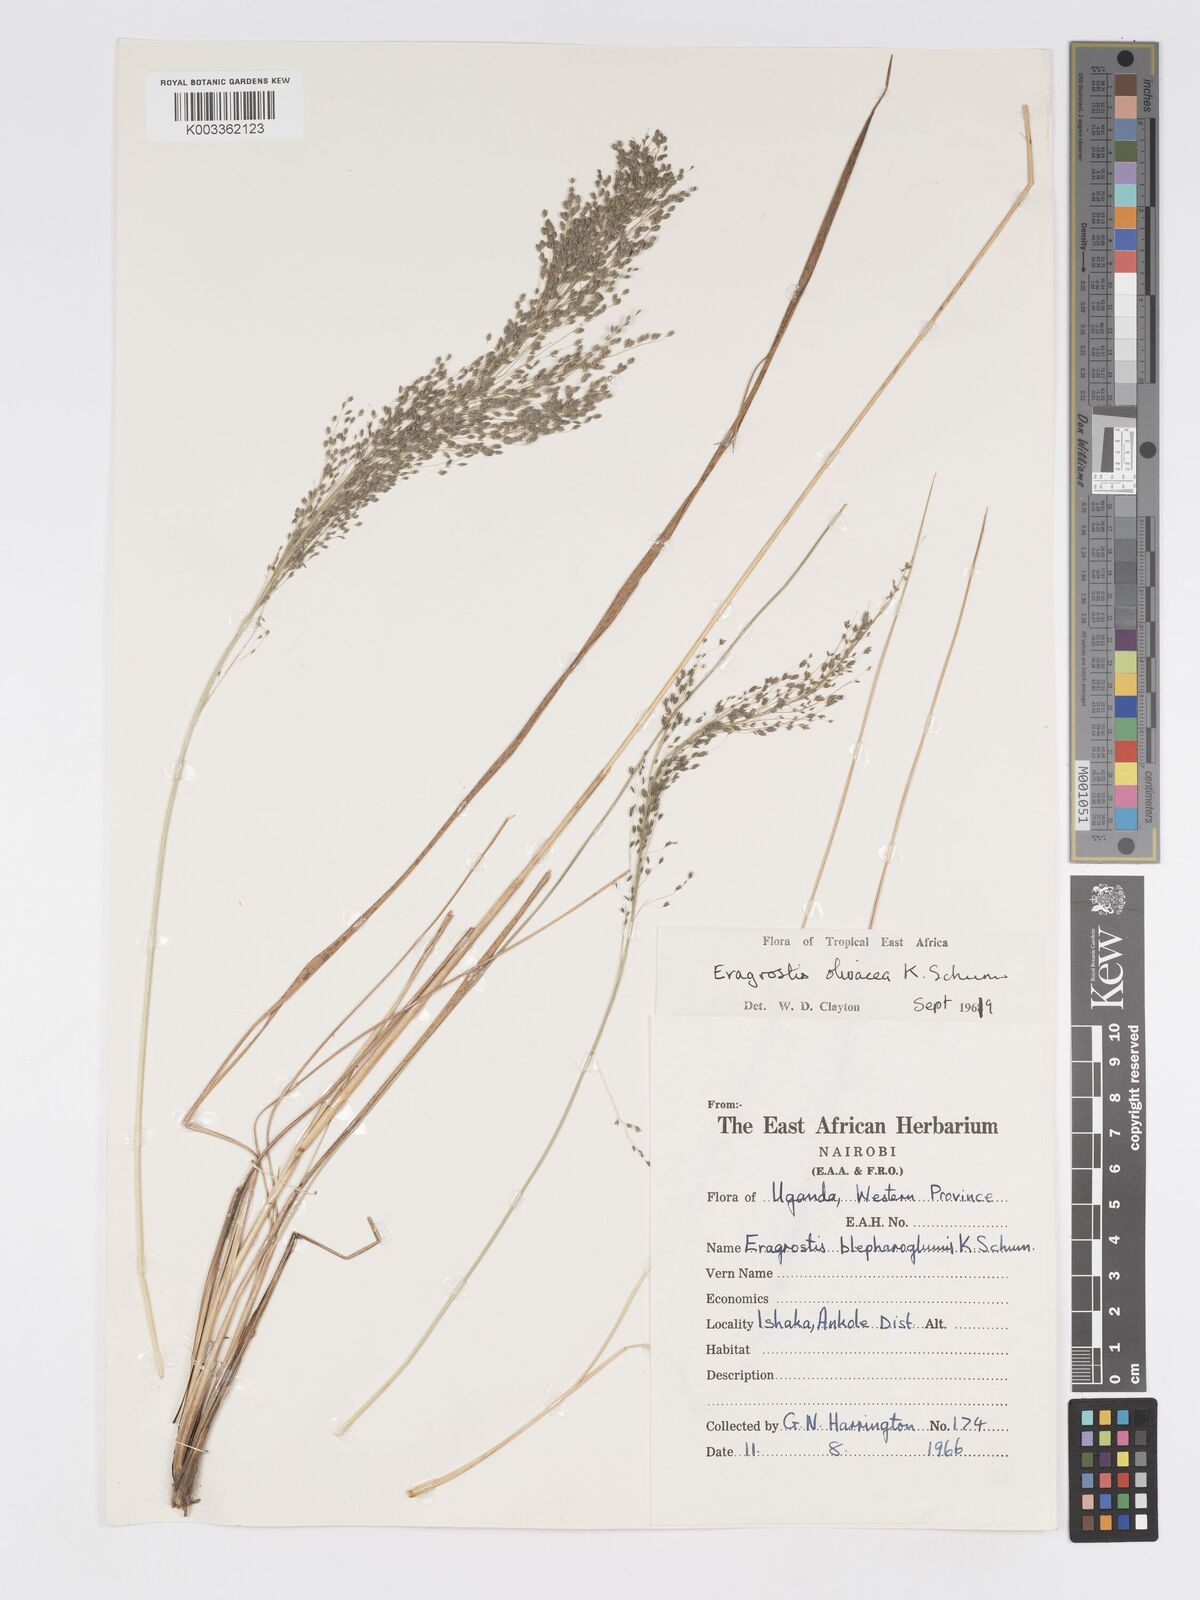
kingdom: Plantae
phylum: Tracheophyta
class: Liliopsida
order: Poales
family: Poaceae
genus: Eragrostis
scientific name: Eragrostis olivacea
